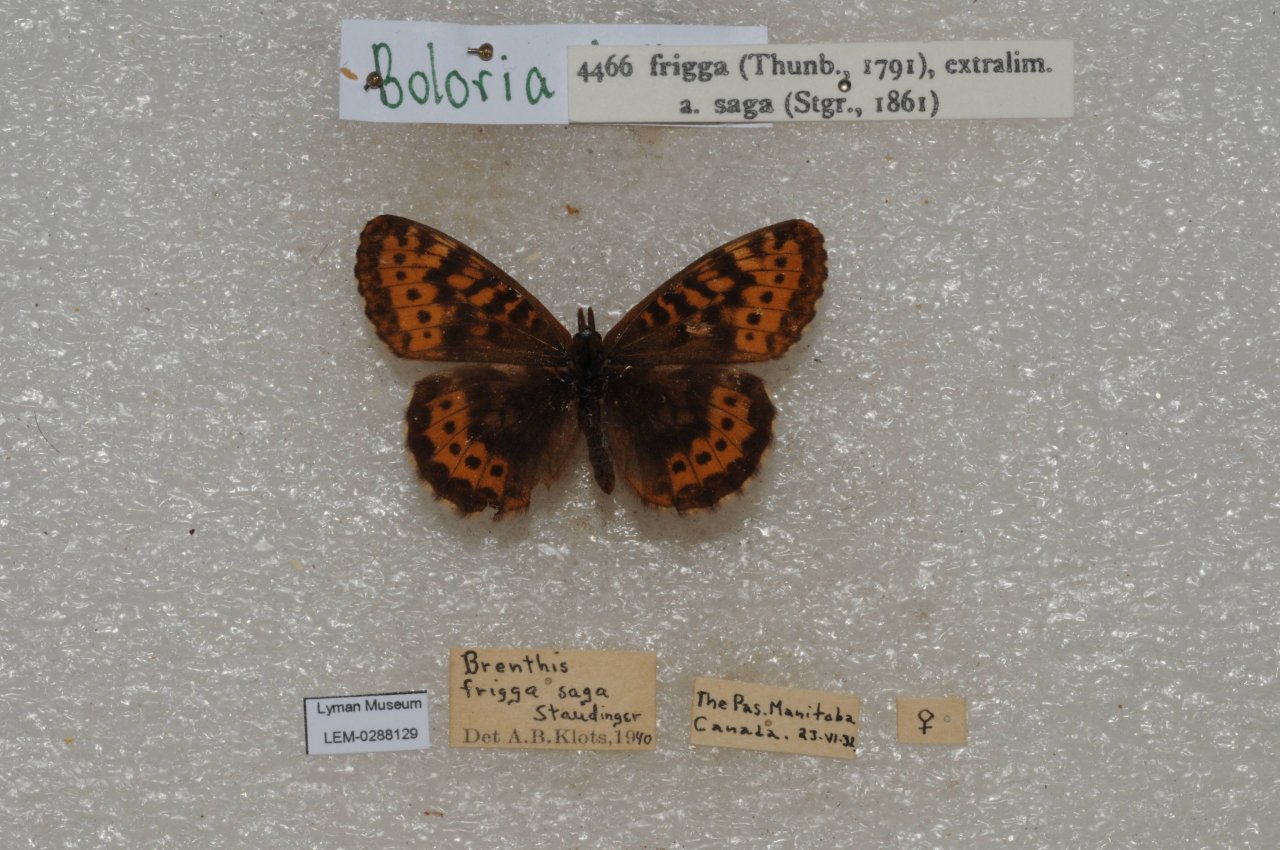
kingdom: Animalia
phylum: Arthropoda
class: Insecta
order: Lepidoptera
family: Nymphalidae
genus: Boloria
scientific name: Boloria frigga
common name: Frigga Fritillary
